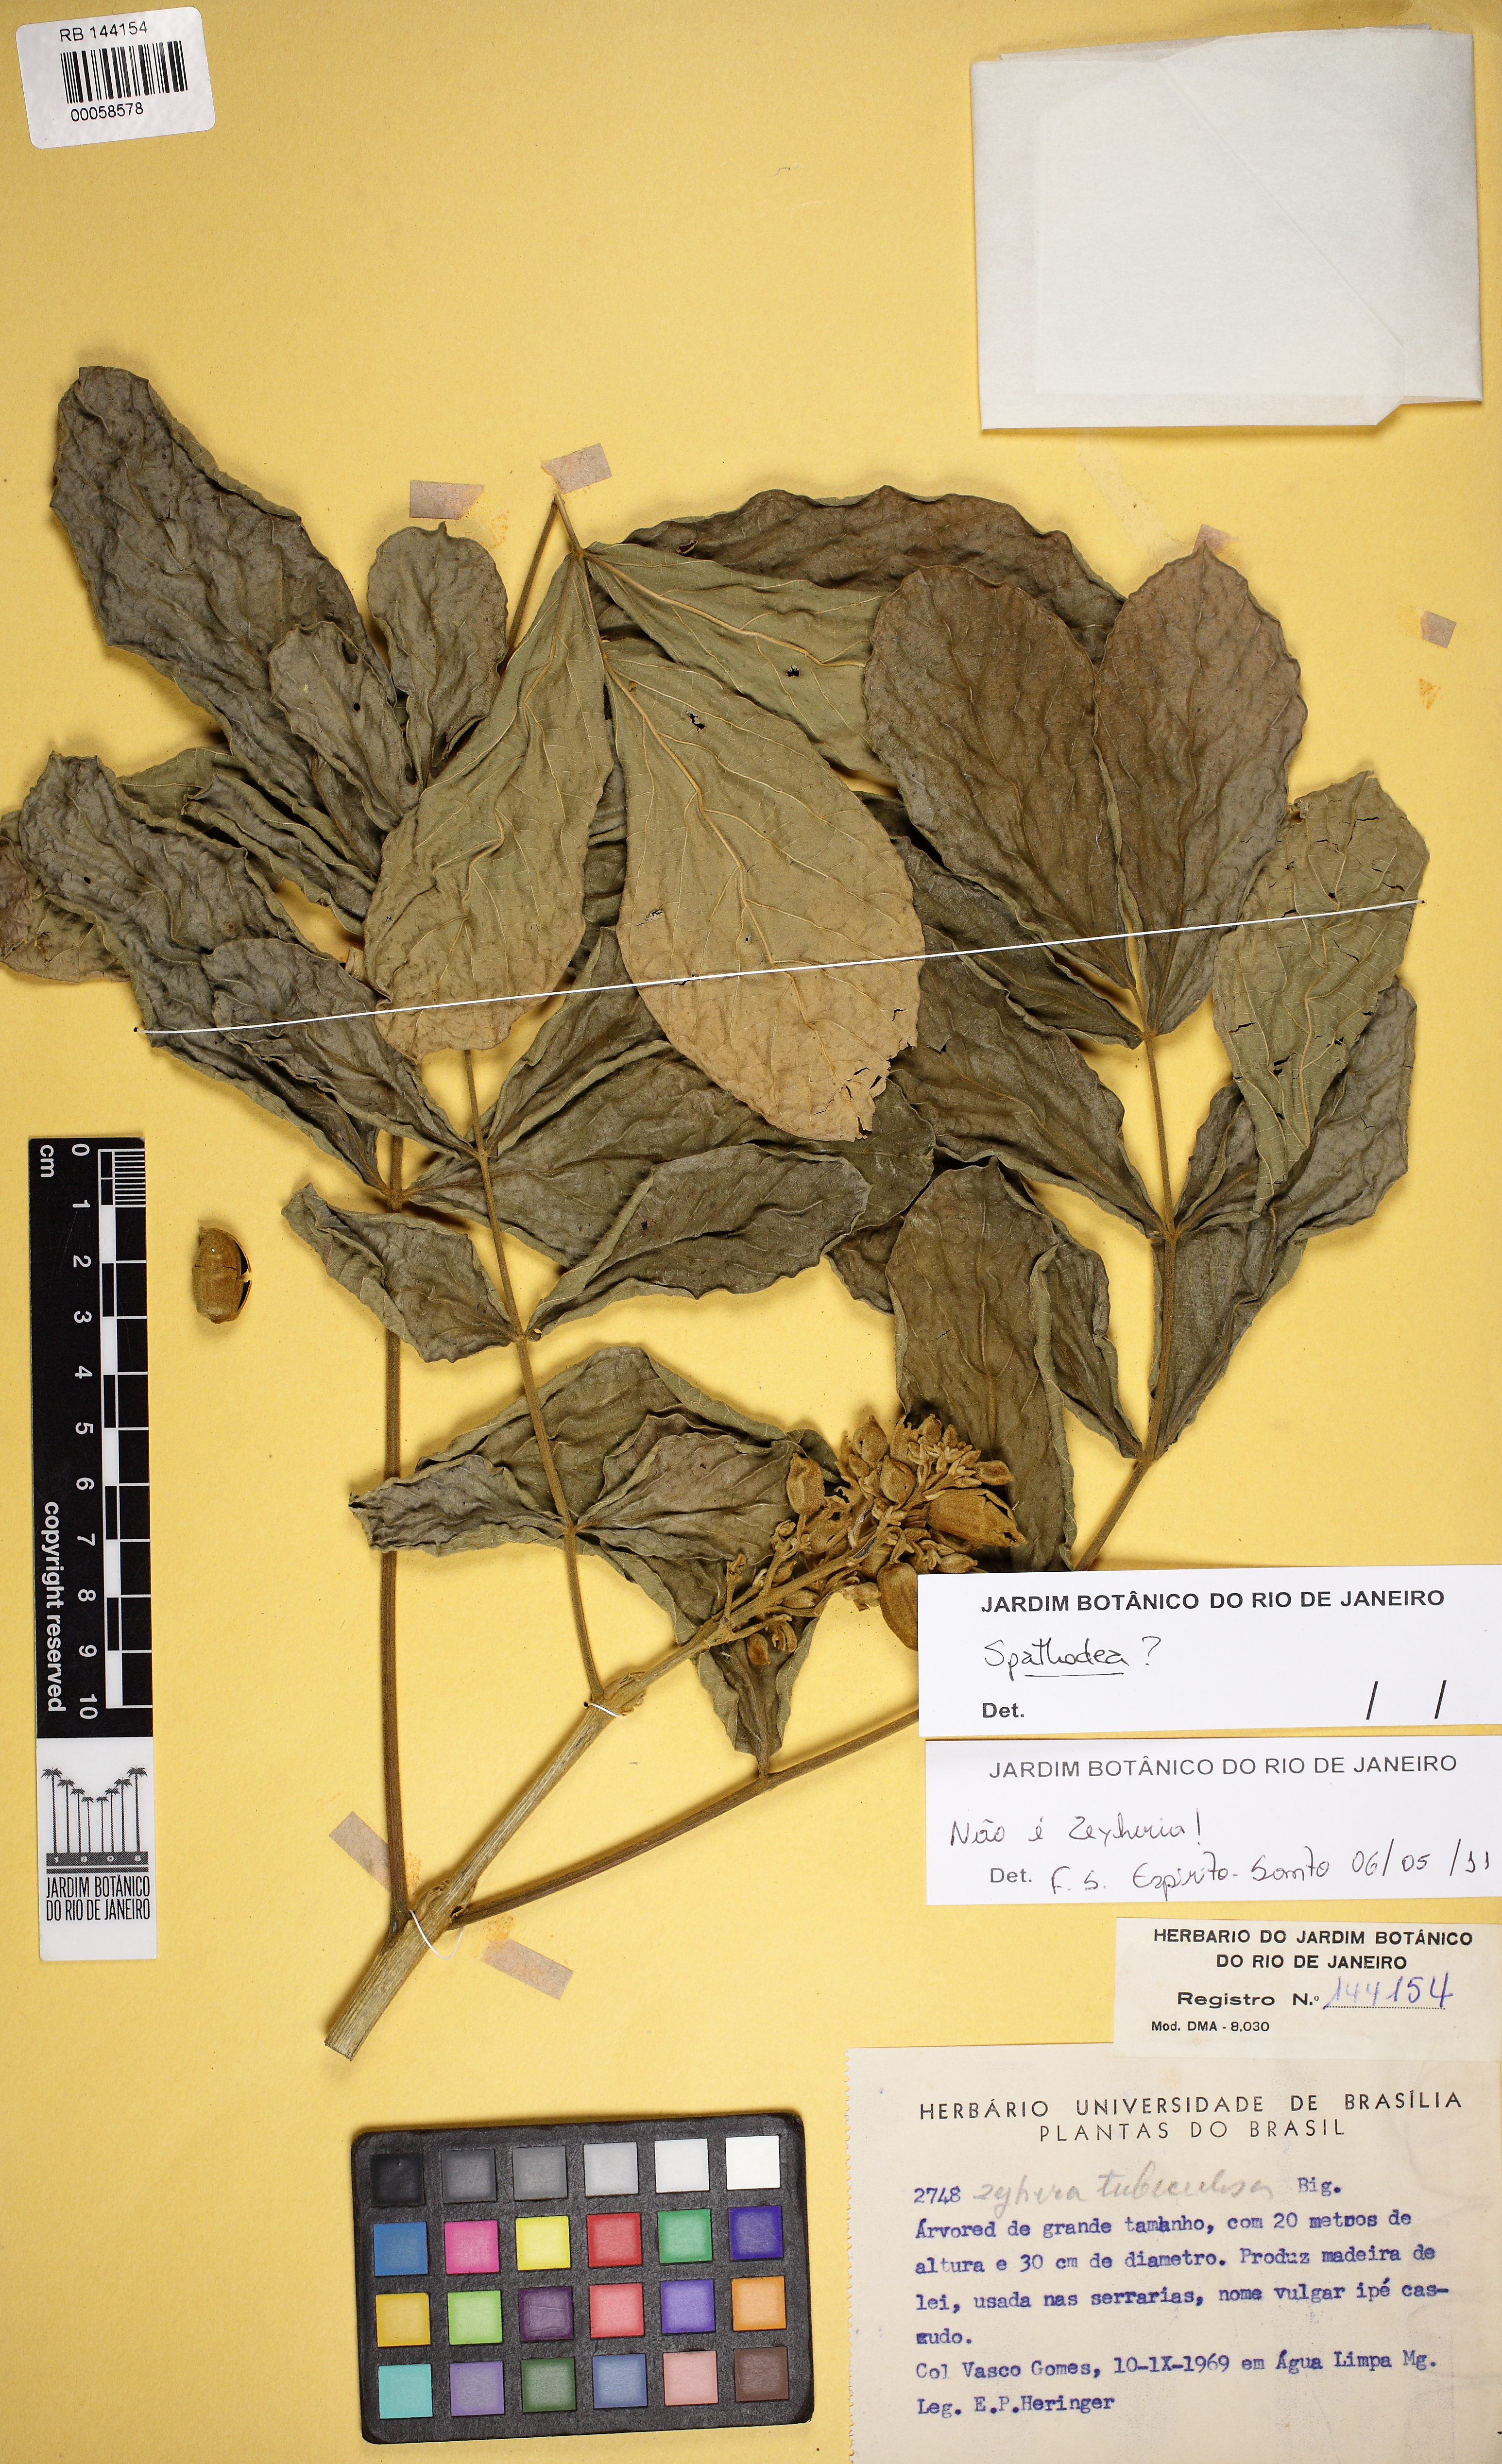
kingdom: Plantae
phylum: Tracheophyta
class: Magnoliopsida
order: Lamiales
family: Bignoniaceae
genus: Spathodea
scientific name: Spathodea
